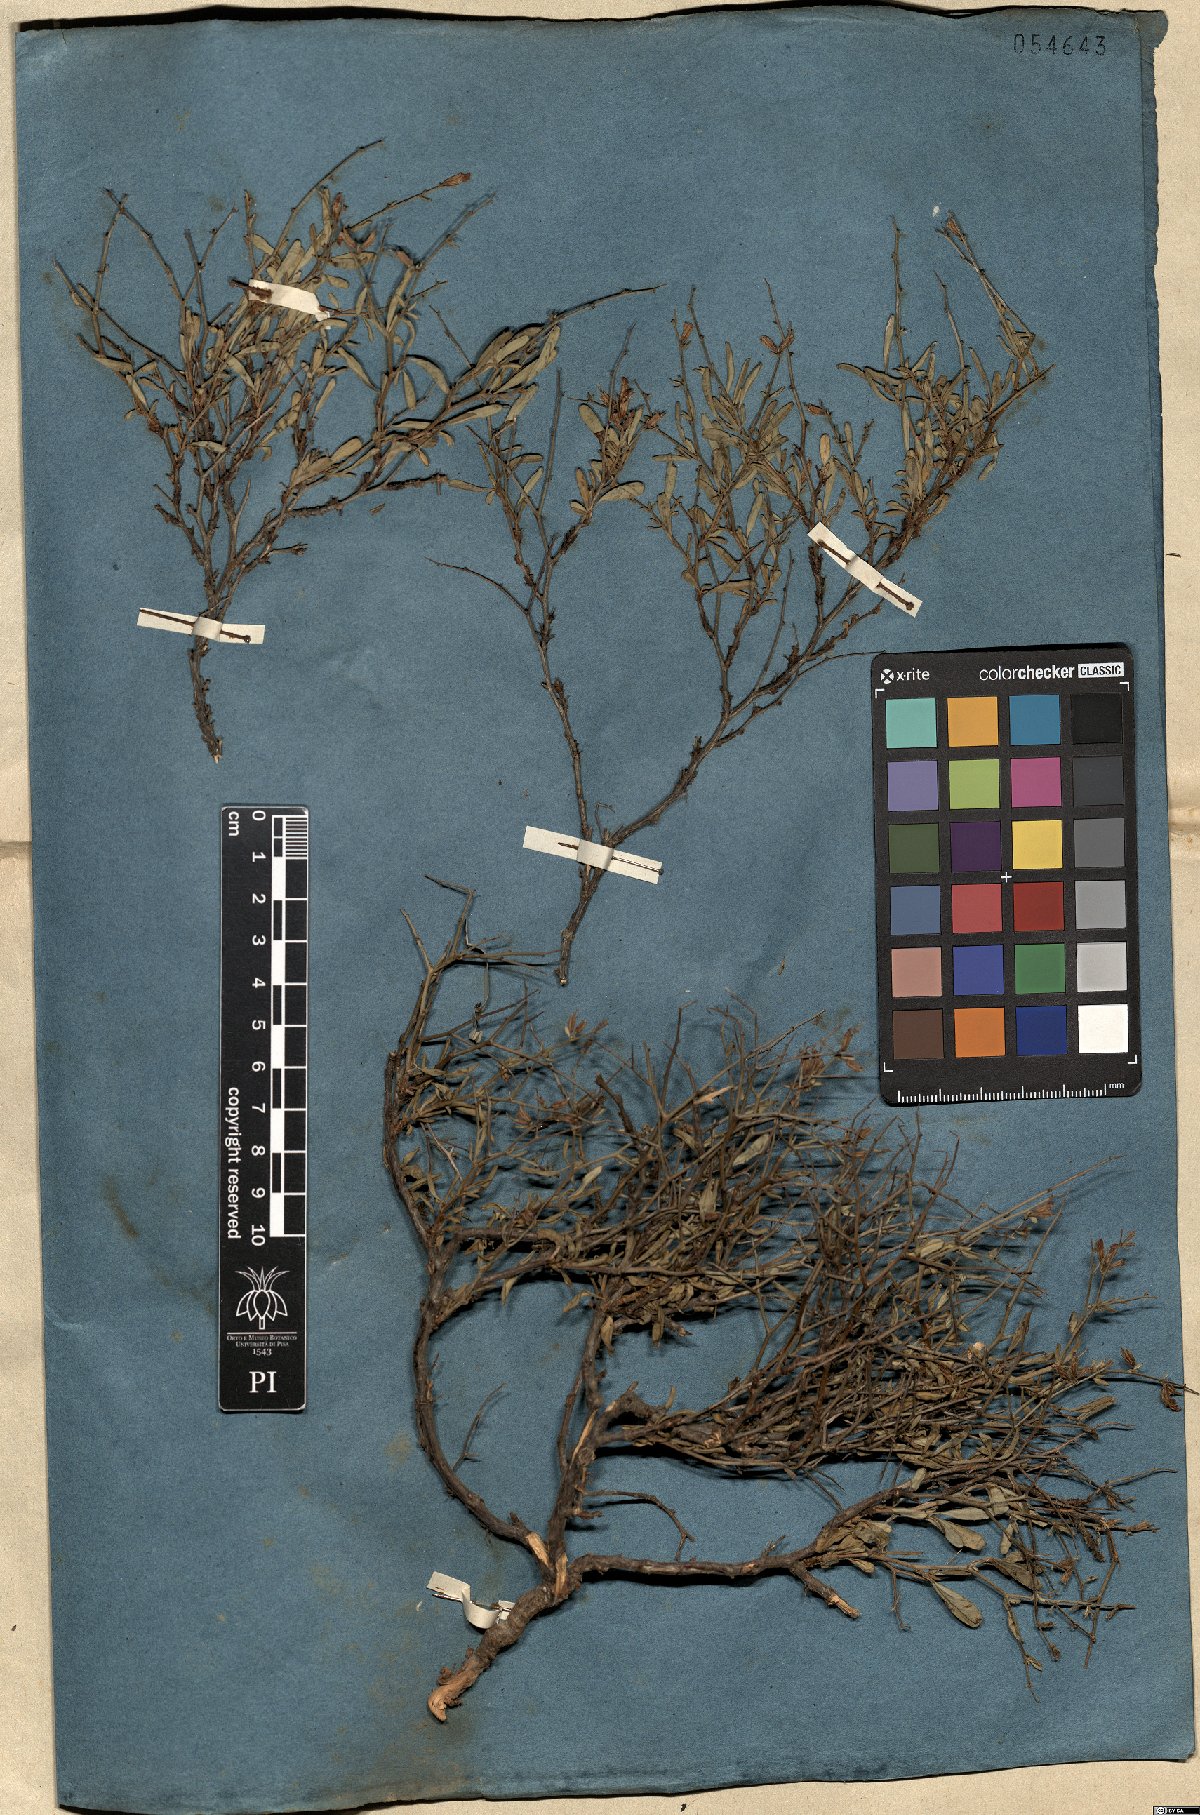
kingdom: Plantae
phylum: Tracheophyta
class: Magnoliopsida
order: Fabales
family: Fabaceae
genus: Anthyllis
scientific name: Anthyllis hermanniae
